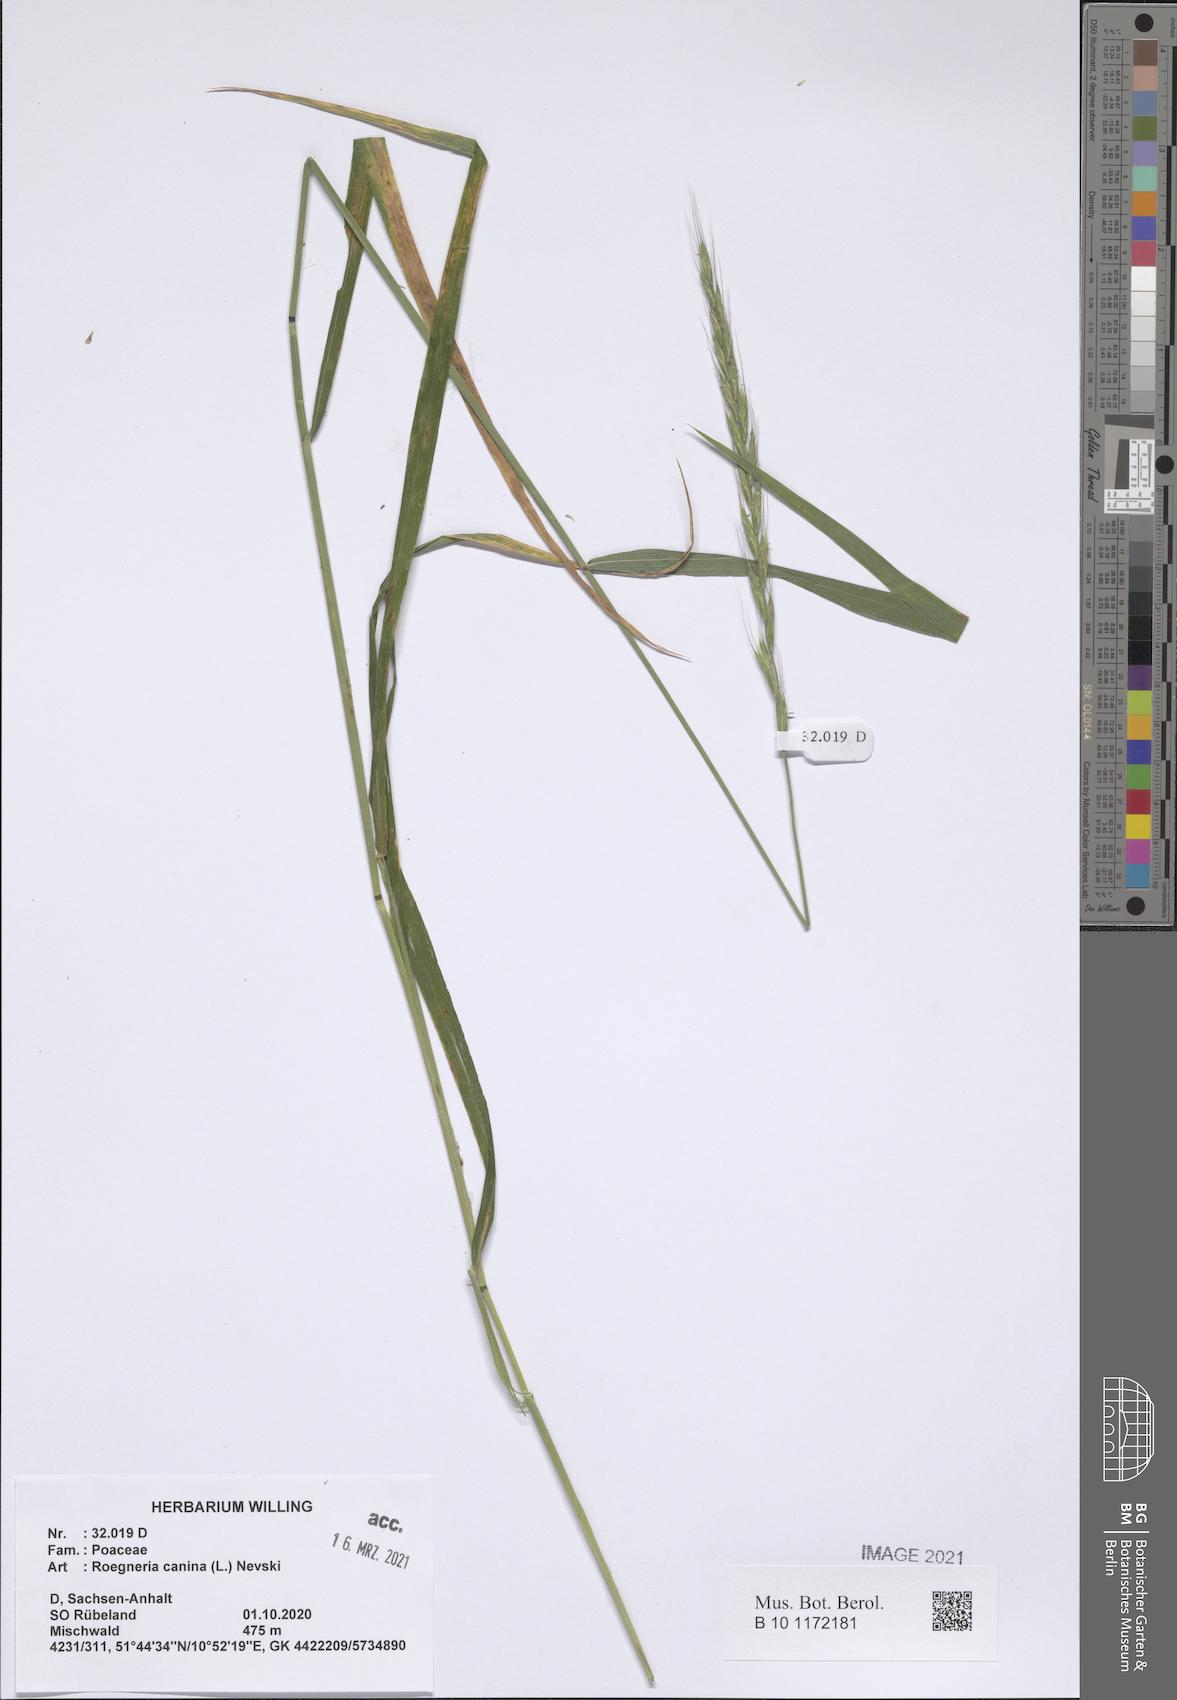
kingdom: Plantae
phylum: Tracheophyta
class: Liliopsida
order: Poales
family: Poaceae
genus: Elymus
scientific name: Elymus caninus
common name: Bearded couch
